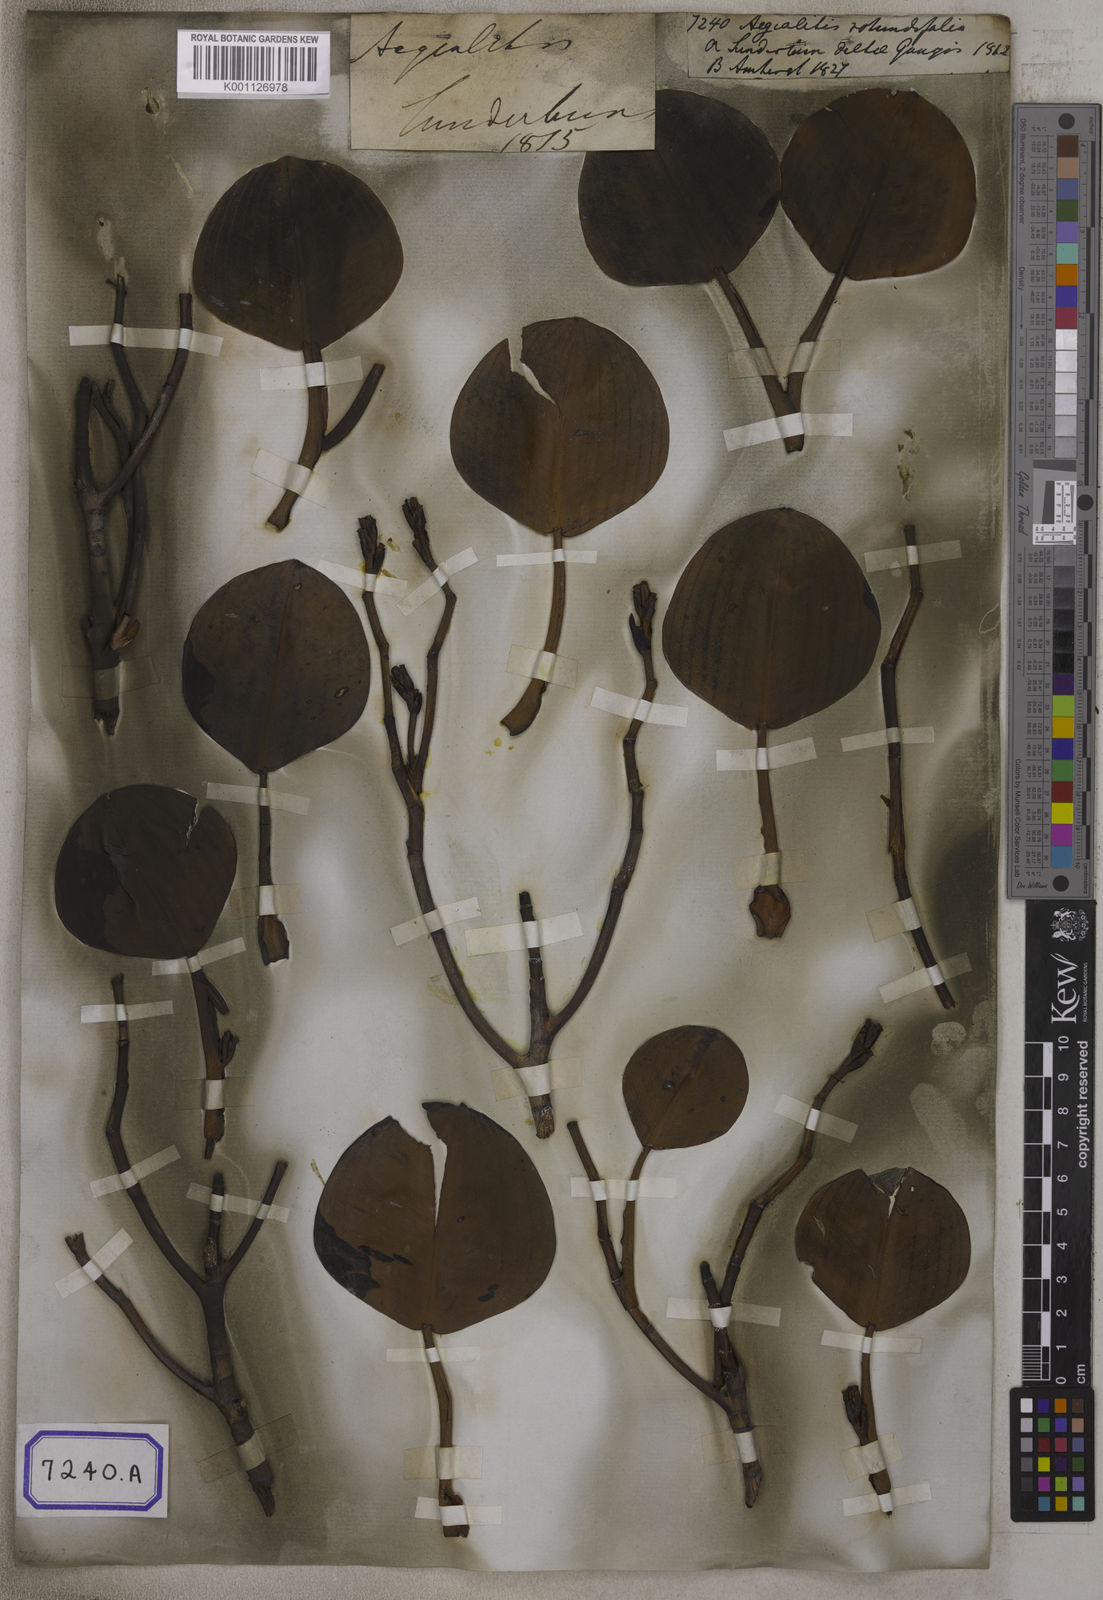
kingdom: Plantae
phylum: Tracheophyta
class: Magnoliopsida
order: Caryophyllales
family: Plumbaginaceae
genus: Aegialitis
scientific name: Aegialitis rotundifolia
